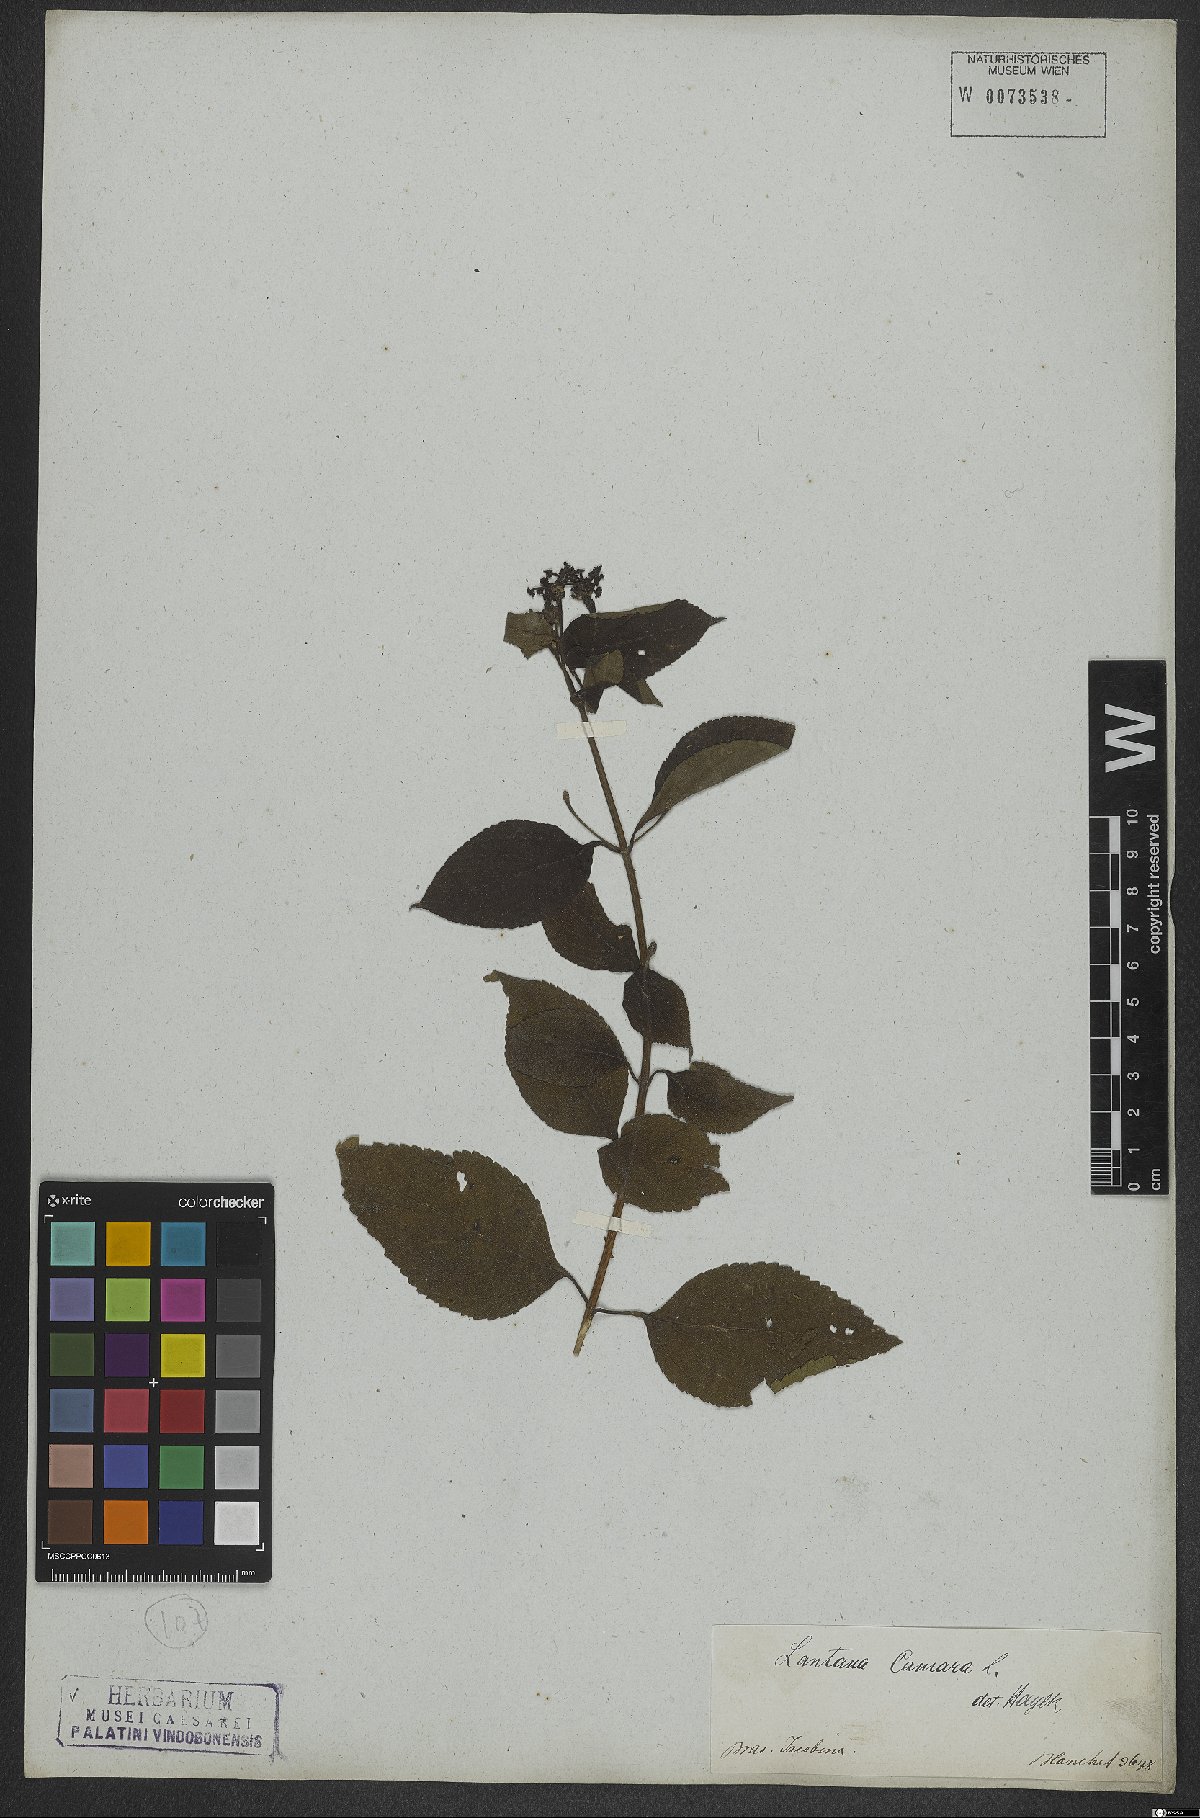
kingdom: Plantae
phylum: Tracheophyta
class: Magnoliopsida
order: Lamiales
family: Verbenaceae
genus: Lantana
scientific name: Lantana camara
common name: Lantana
